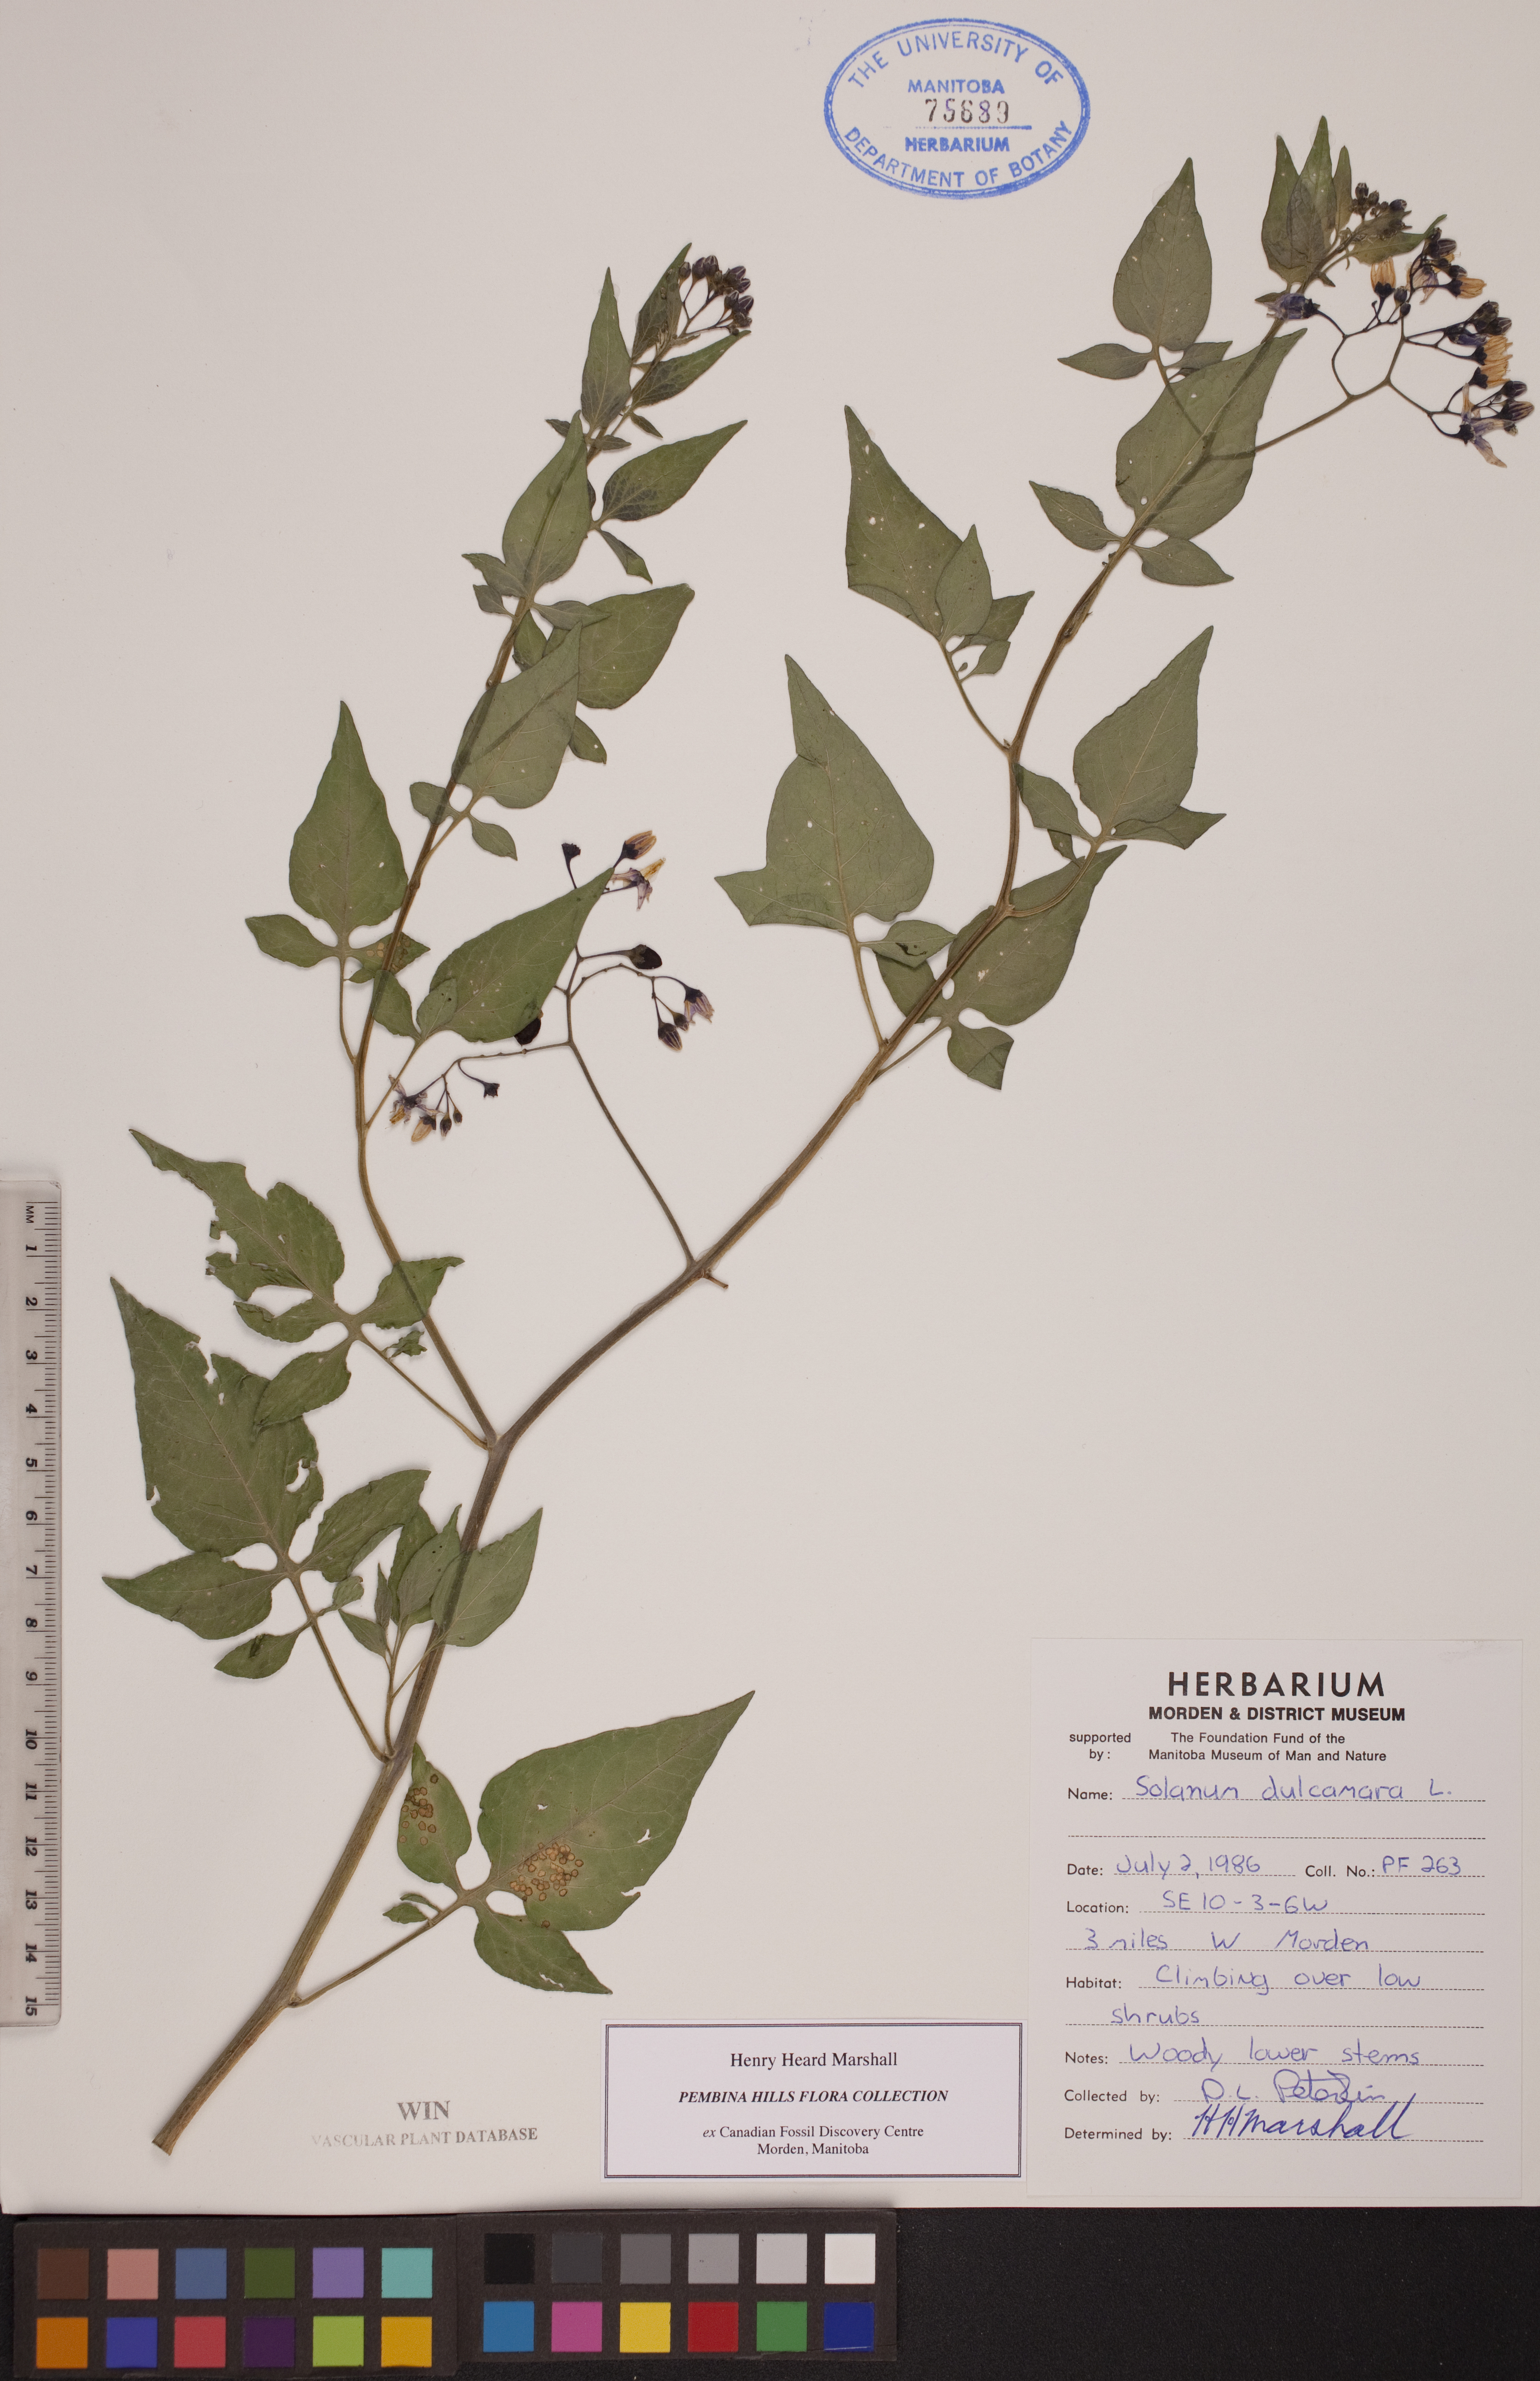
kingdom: Plantae
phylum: Tracheophyta
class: Magnoliopsida
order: Solanales
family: Solanaceae
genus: Solanum
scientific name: Solanum dulcamara
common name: Climbing nightshade
